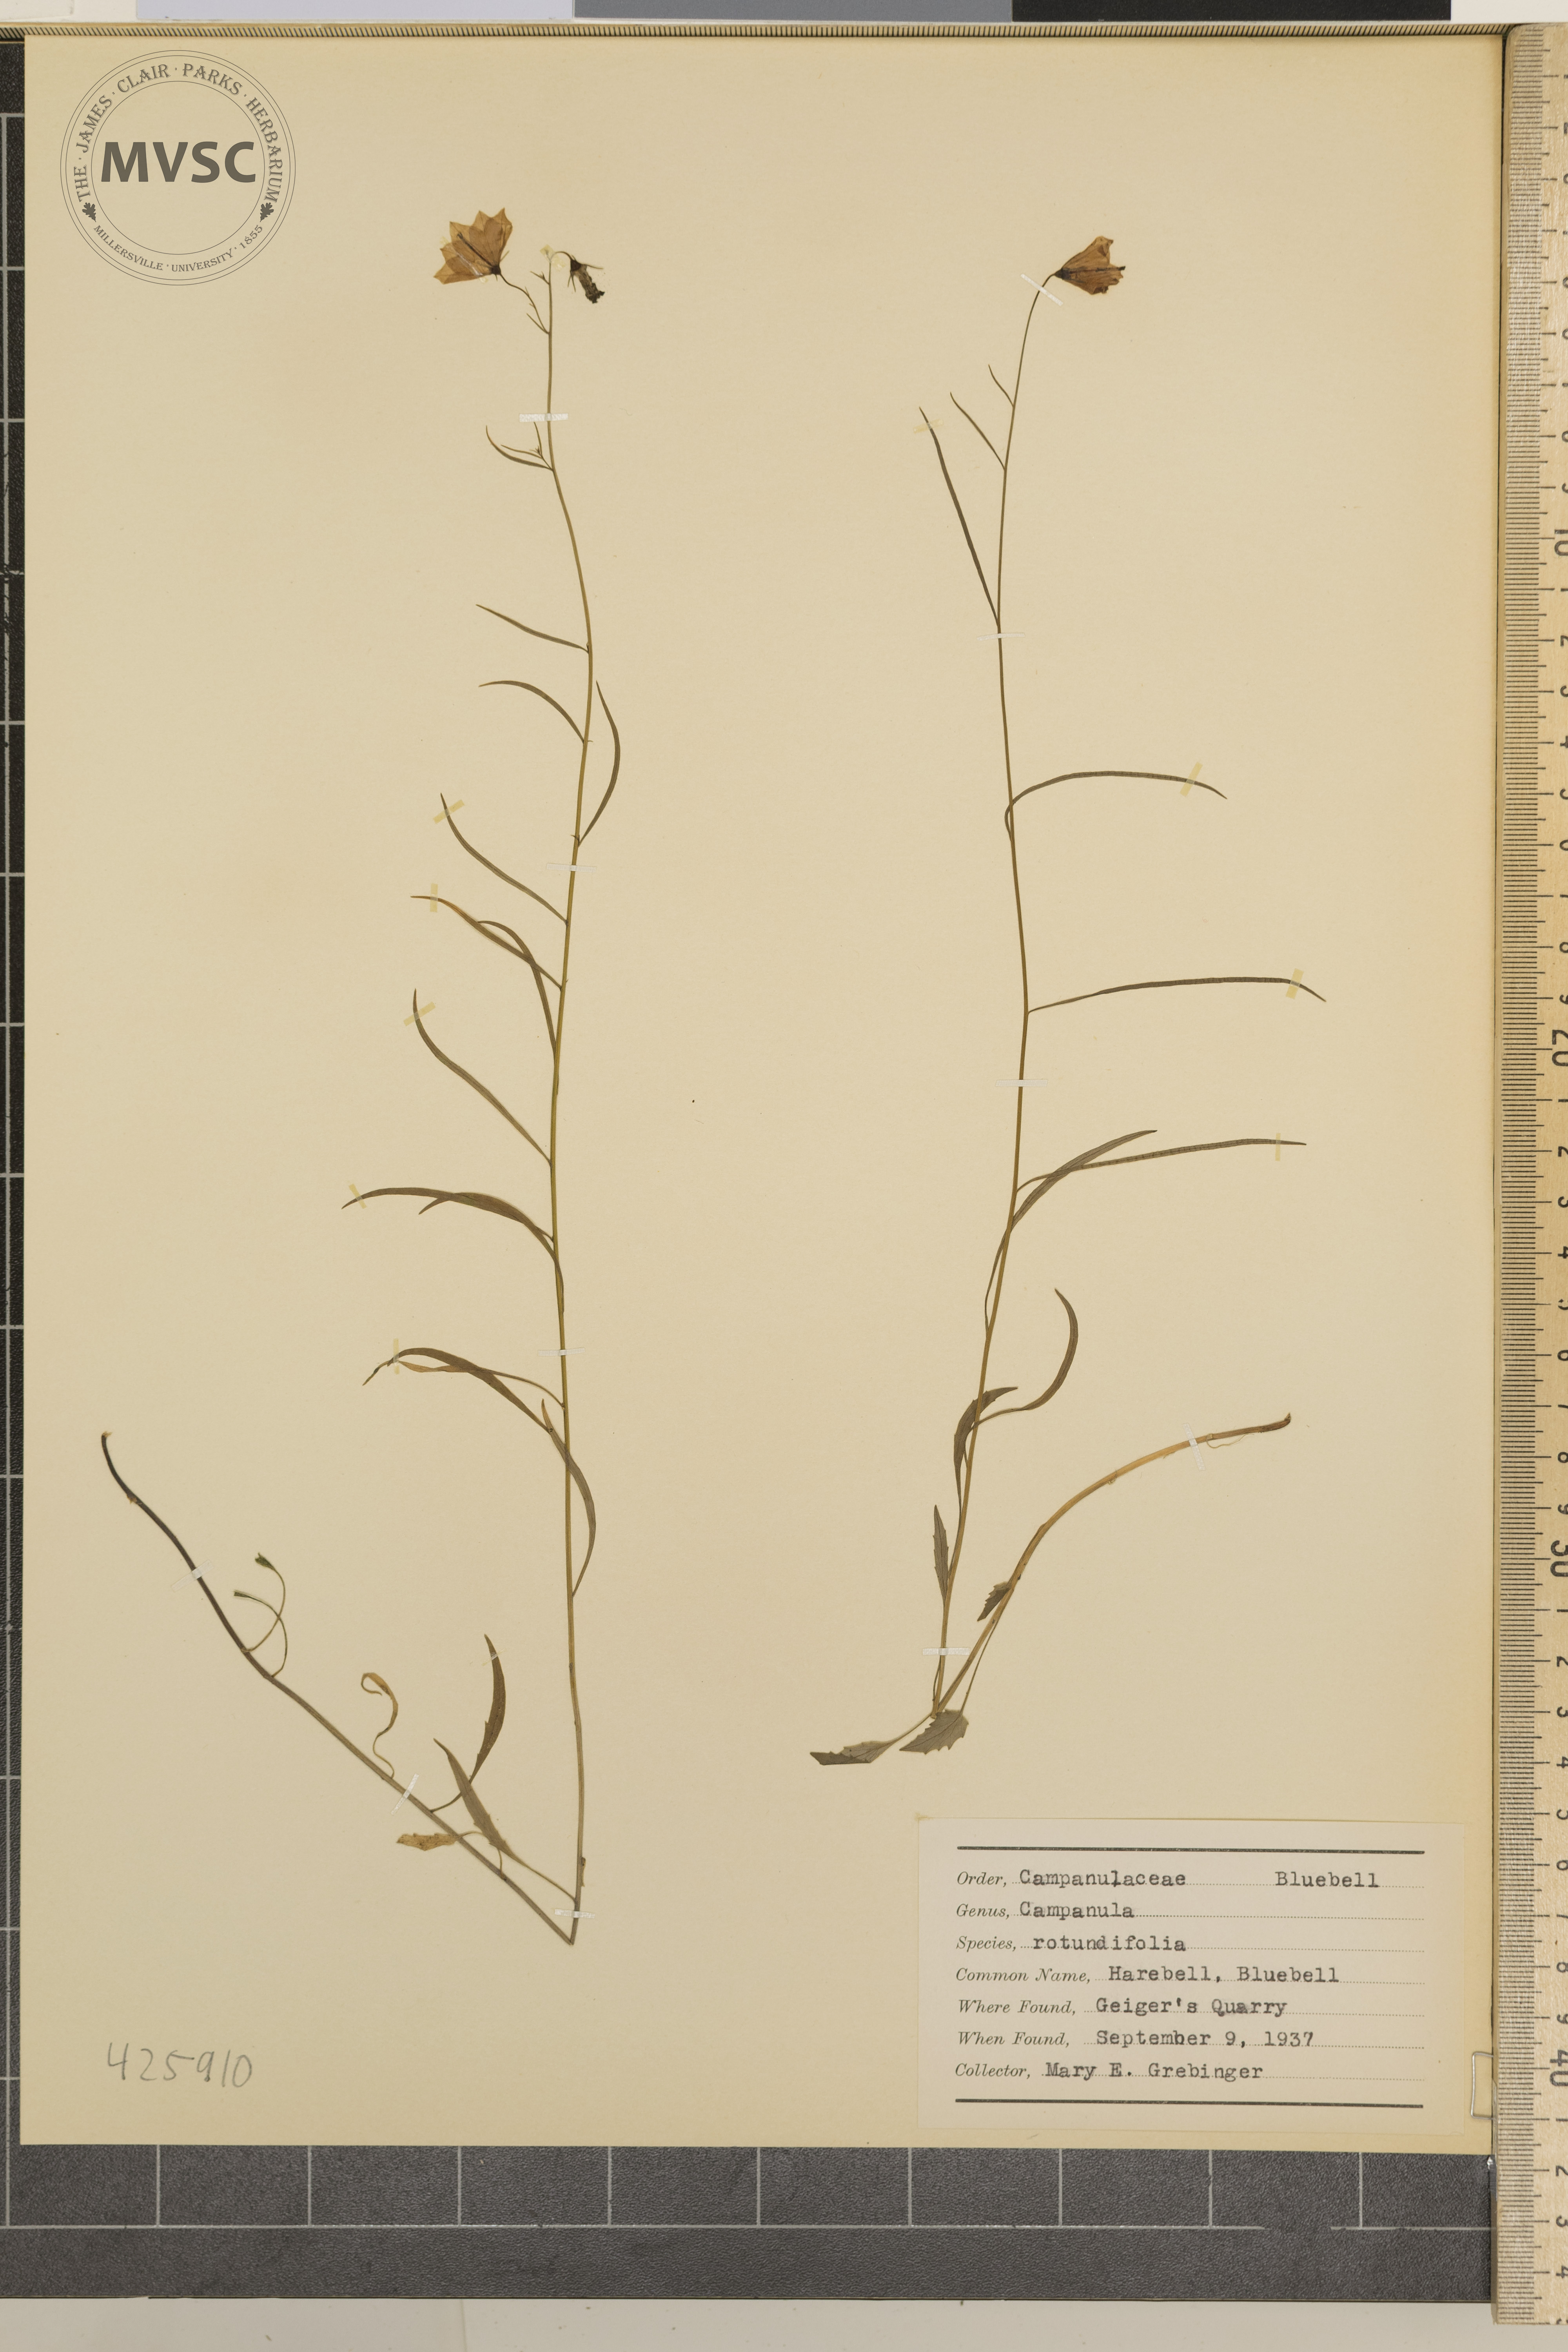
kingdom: Plantae
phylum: Tracheophyta
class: Magnoliopsida
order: Asterales
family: Campanulaceae
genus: Campanula
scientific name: Campanula rotundifolia
